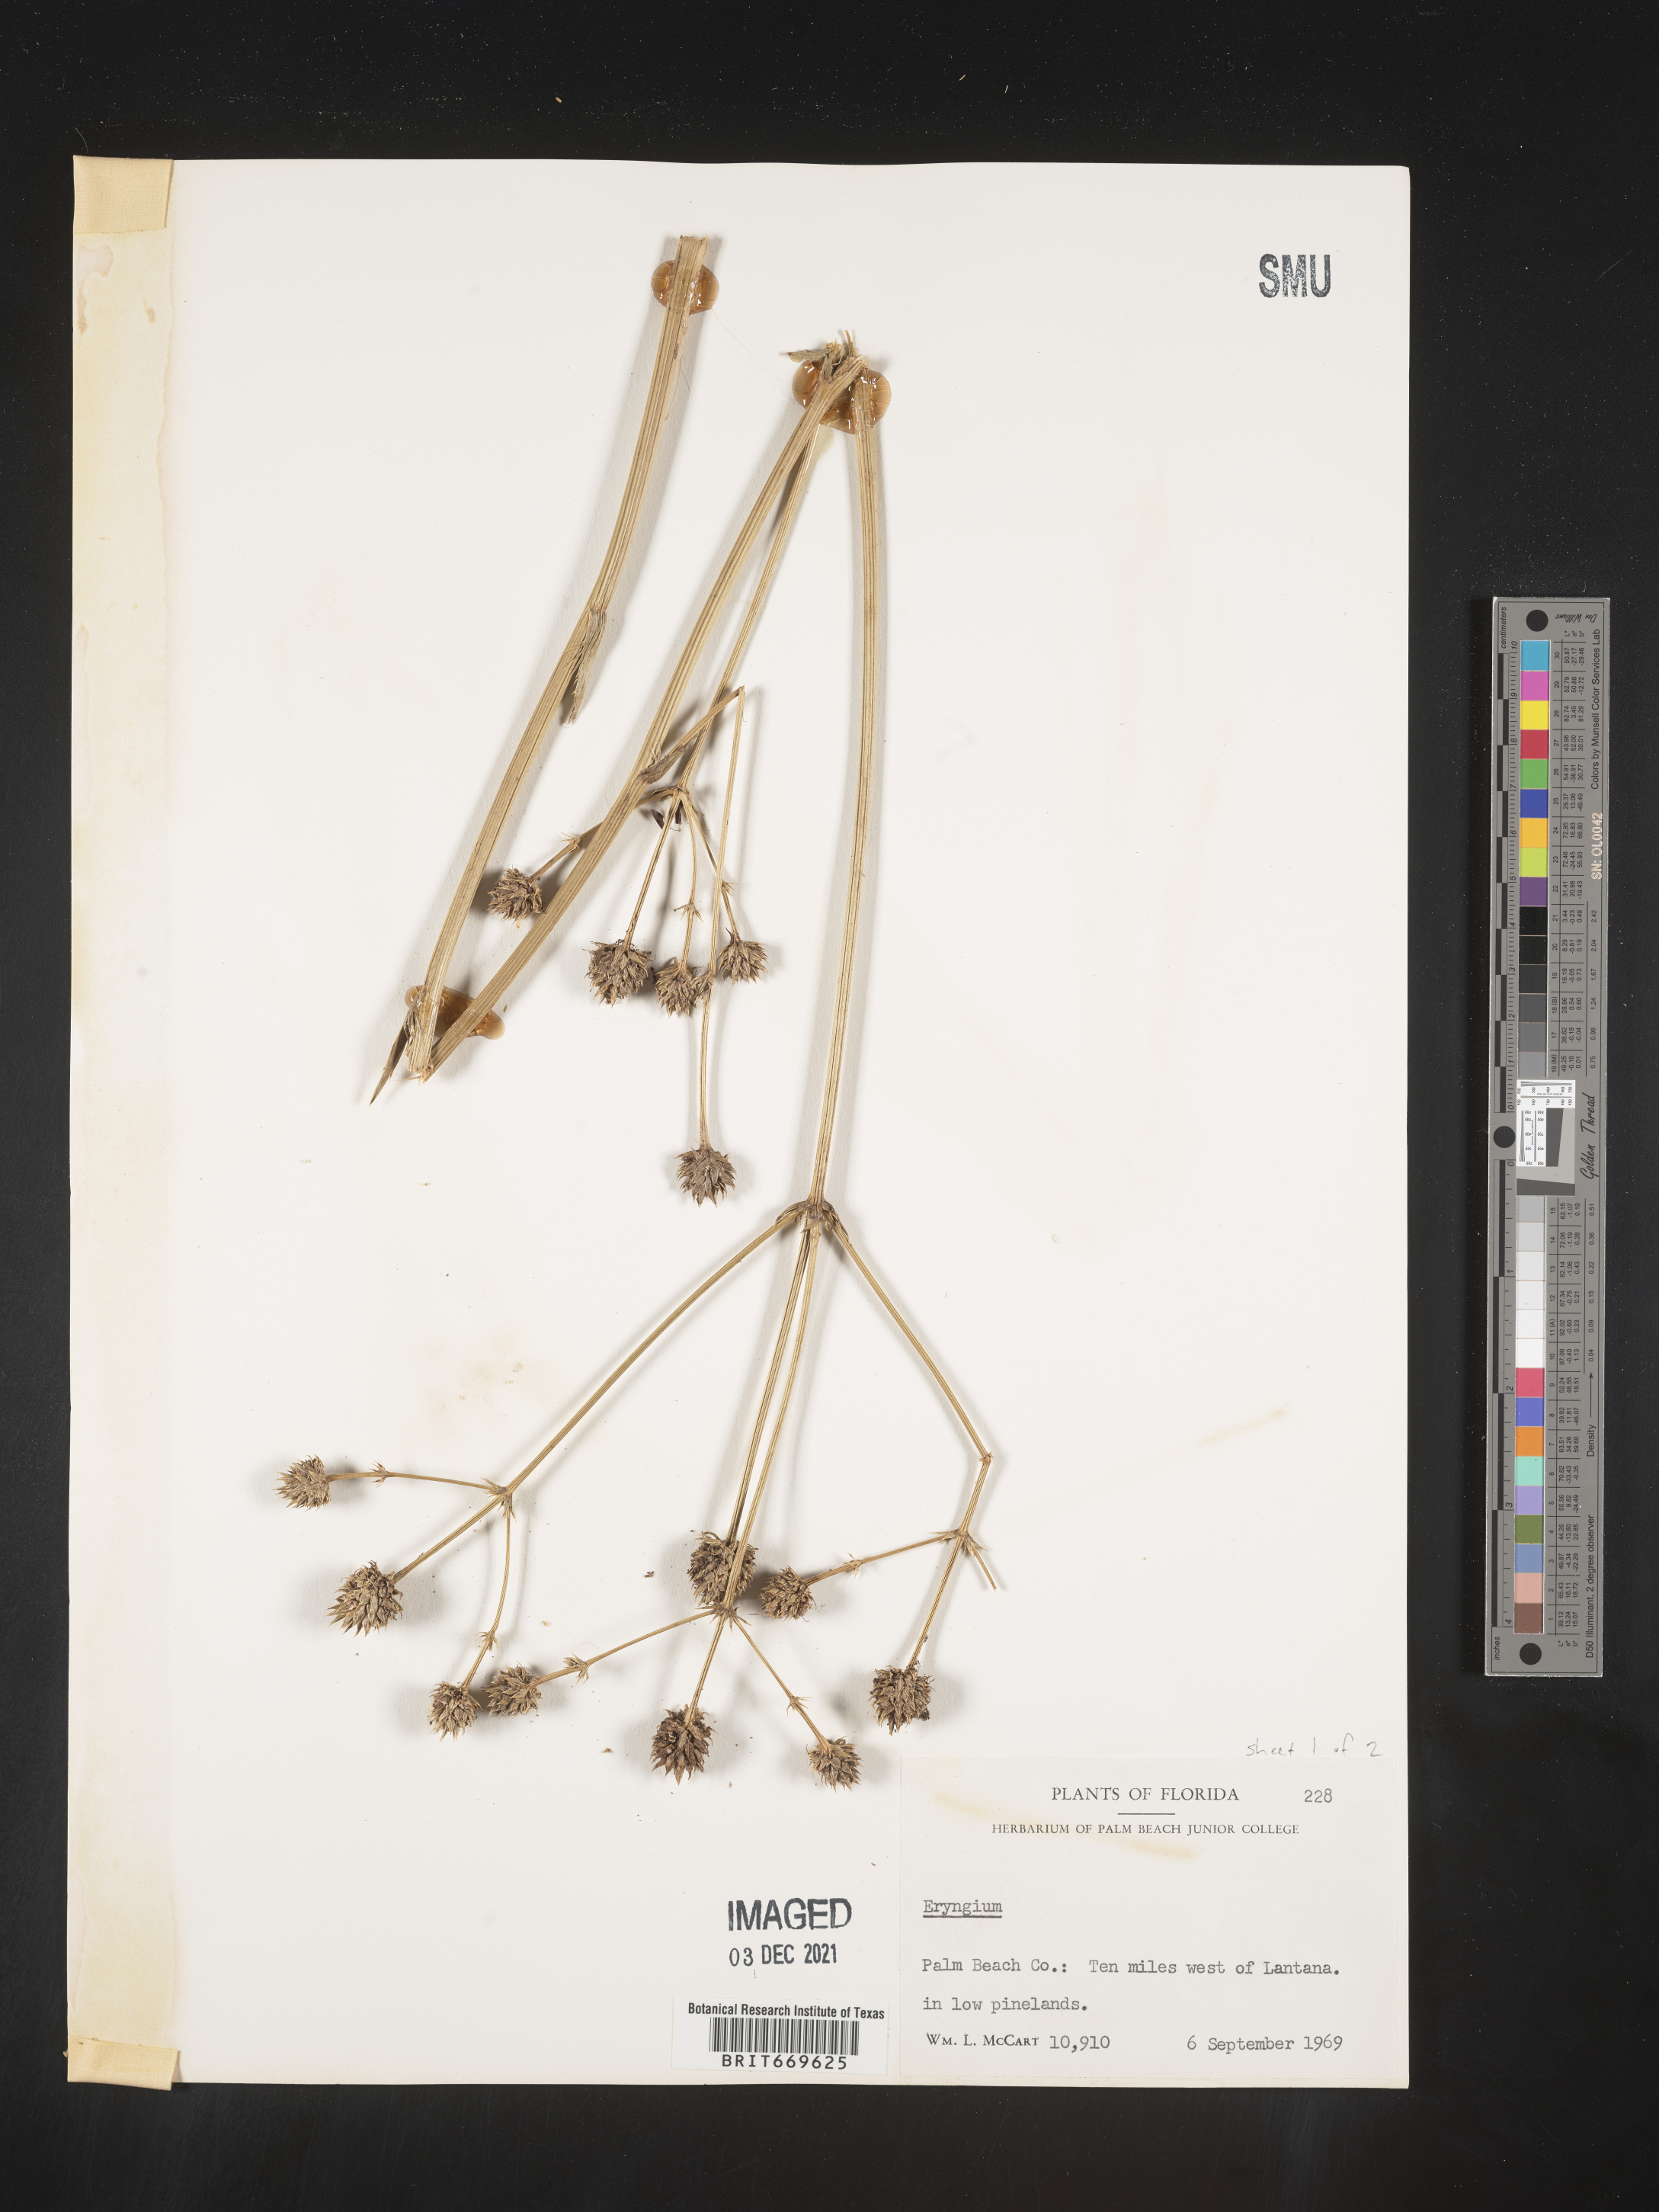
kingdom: Plantae
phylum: Tracheophyta
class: Magnoliopsida
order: Apiales
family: Apiaceae
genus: Eryngium
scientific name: Eryngium
